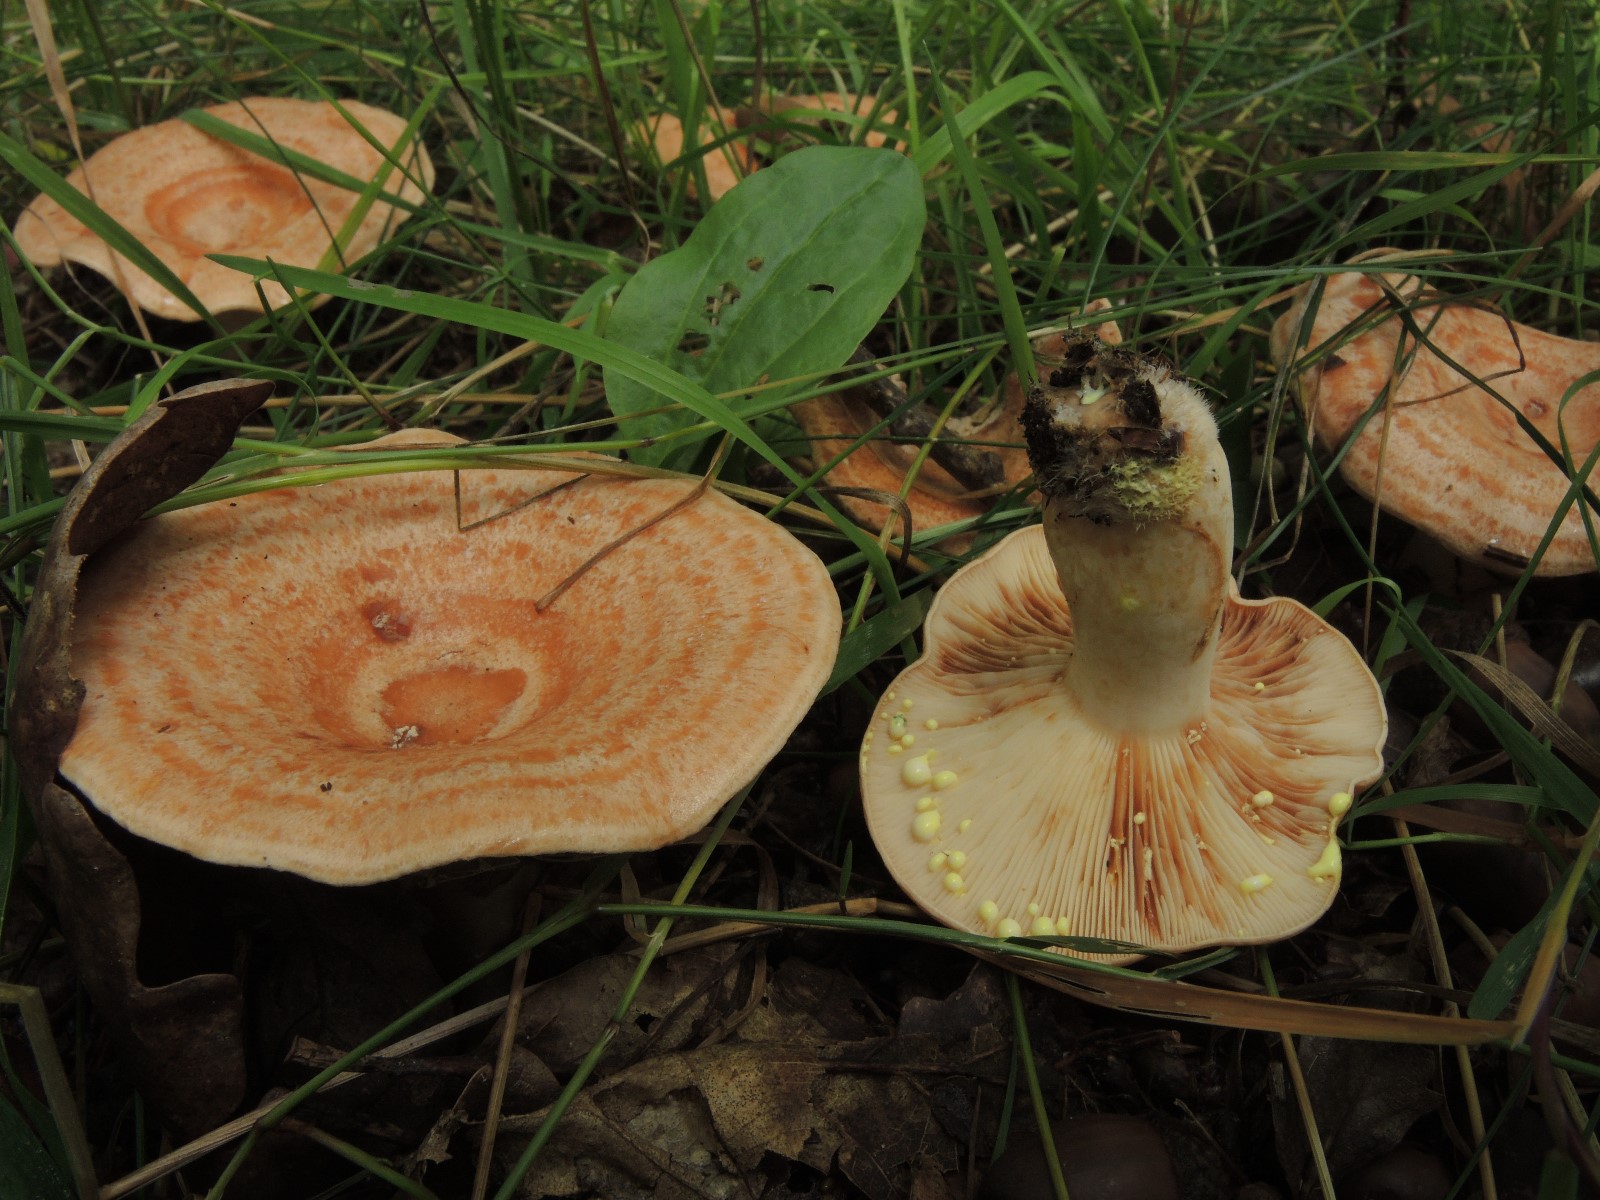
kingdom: Fungi
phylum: Basidiomycota
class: Agaricomycetes
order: Russulales
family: Russulaceae
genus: Lactarius
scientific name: Lactarius chrysorrheus
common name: svovlmælket mælkehat
